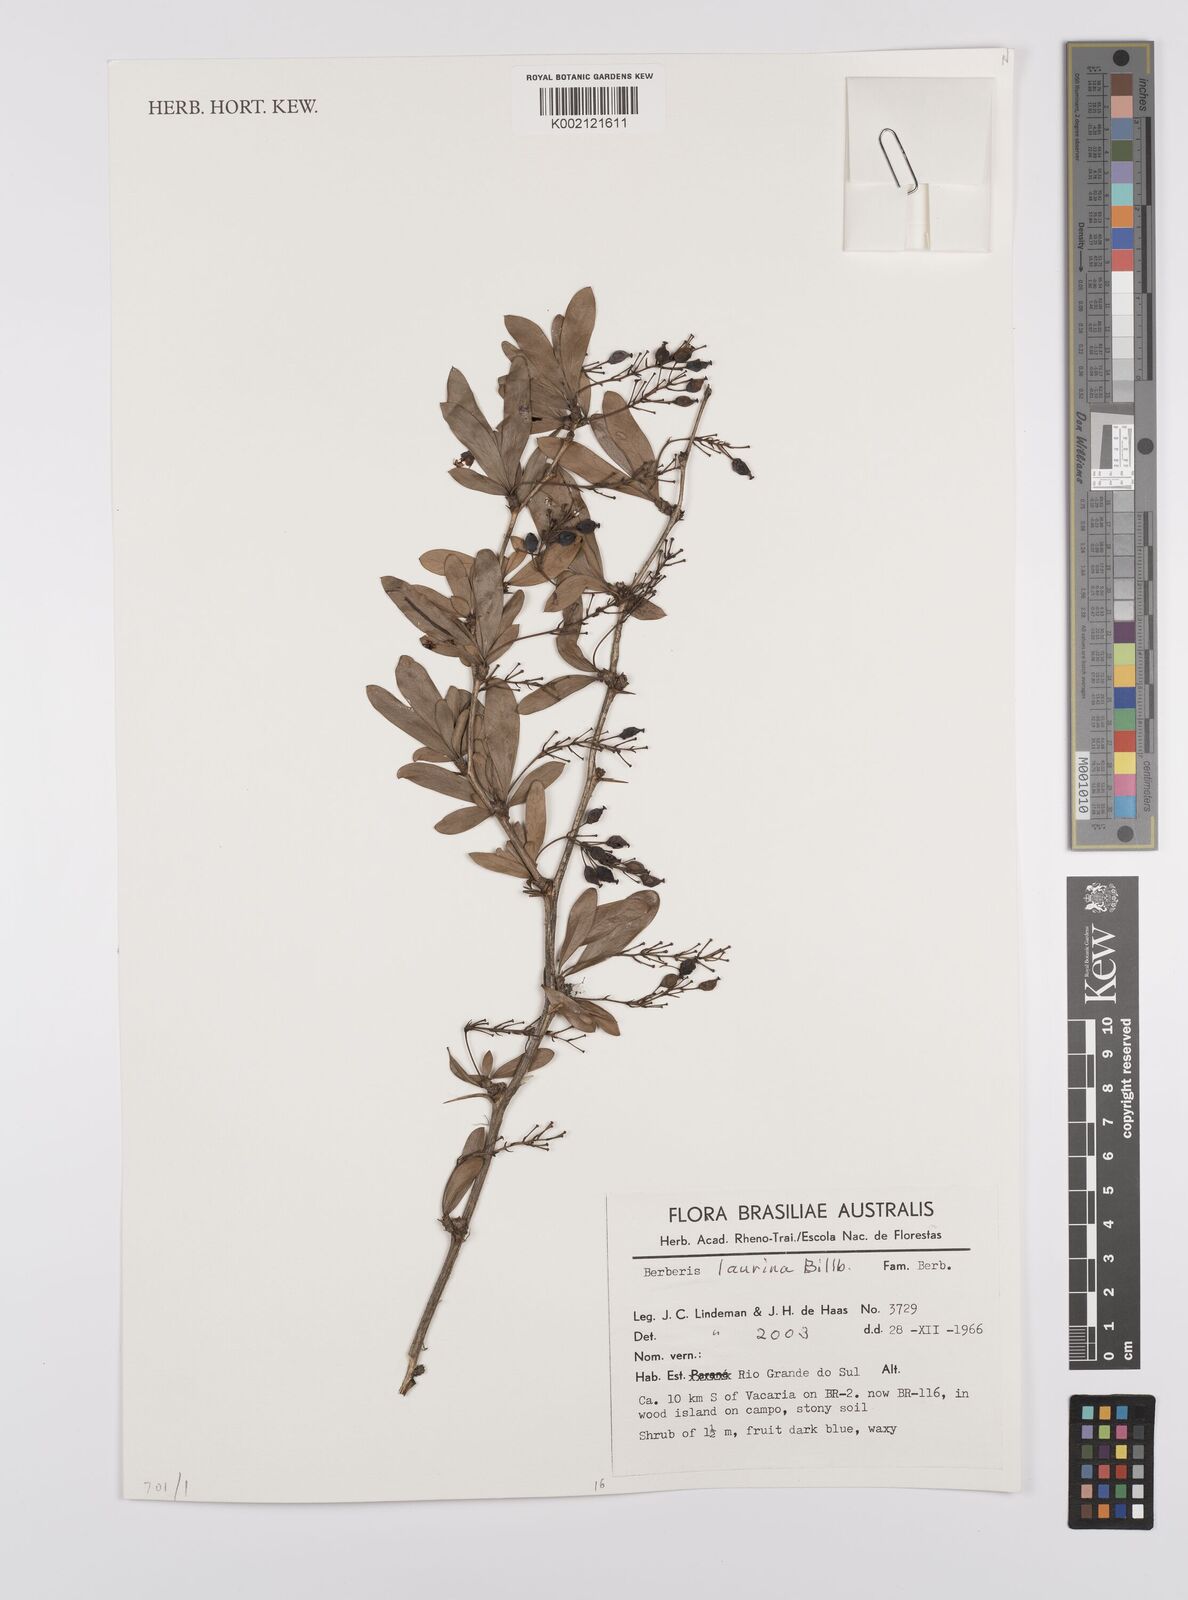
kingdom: Plantae
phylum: Tracheophyta
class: Magnoliopsida
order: Ranunculales
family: Berberidaceae
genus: Berberis
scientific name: Berberis laurina
